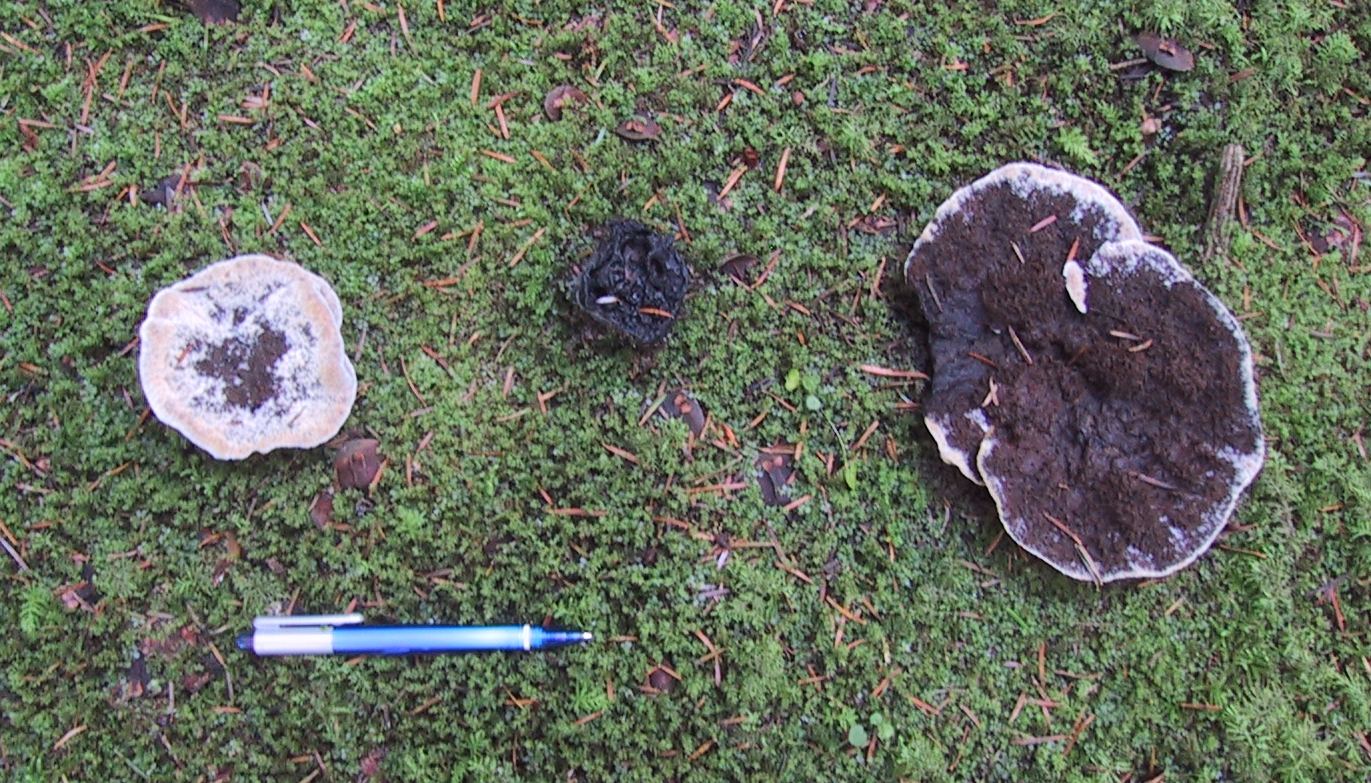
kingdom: Fungi
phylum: Basidiomycota
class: Agaricomycetes
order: Thelephorales
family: Bankeraceae
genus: Hydnellum
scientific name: Hydnellum caeruleum
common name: blålig korkpigsvamp
